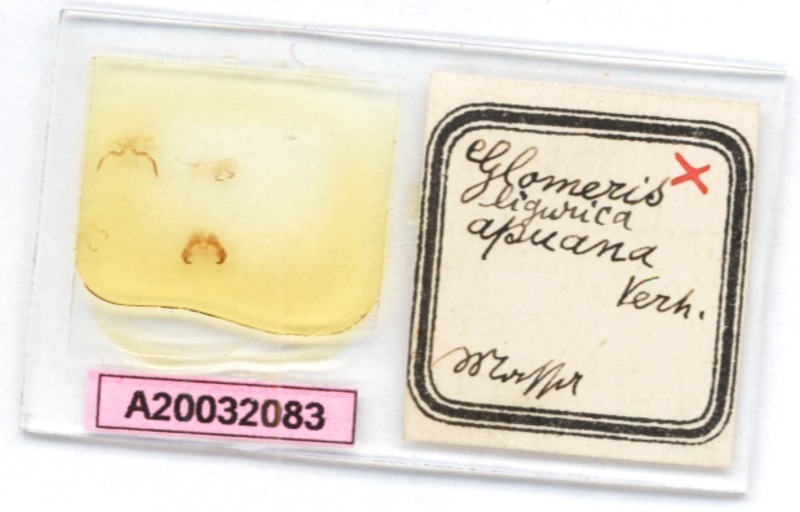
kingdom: Animalia
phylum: Arthropoda
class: Diplopoda
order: Glomerida
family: Glomeridae
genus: Glomeris
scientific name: Glomeris ligurica
